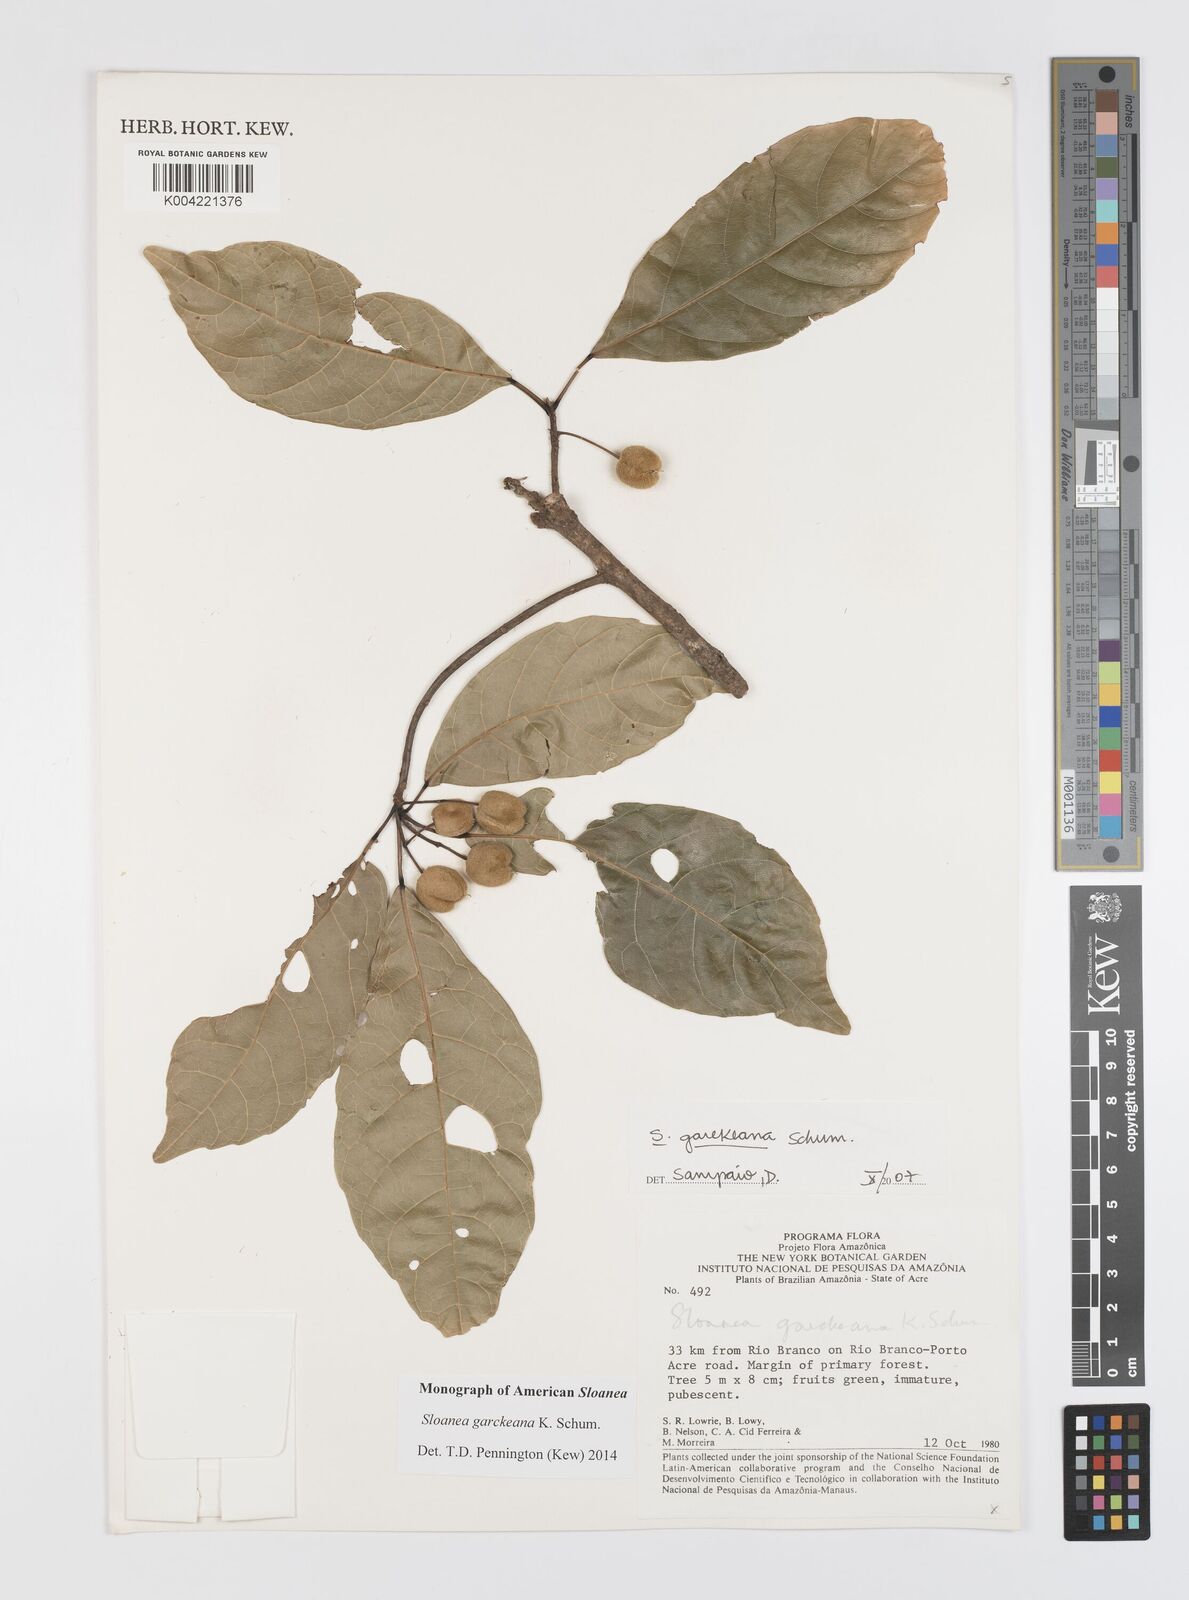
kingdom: Plantae
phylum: Tracheophyta
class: Magnoliopsida
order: Oxalidales
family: Elaeocarpaceae
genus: Sloanea
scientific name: Sloanea garckeana
